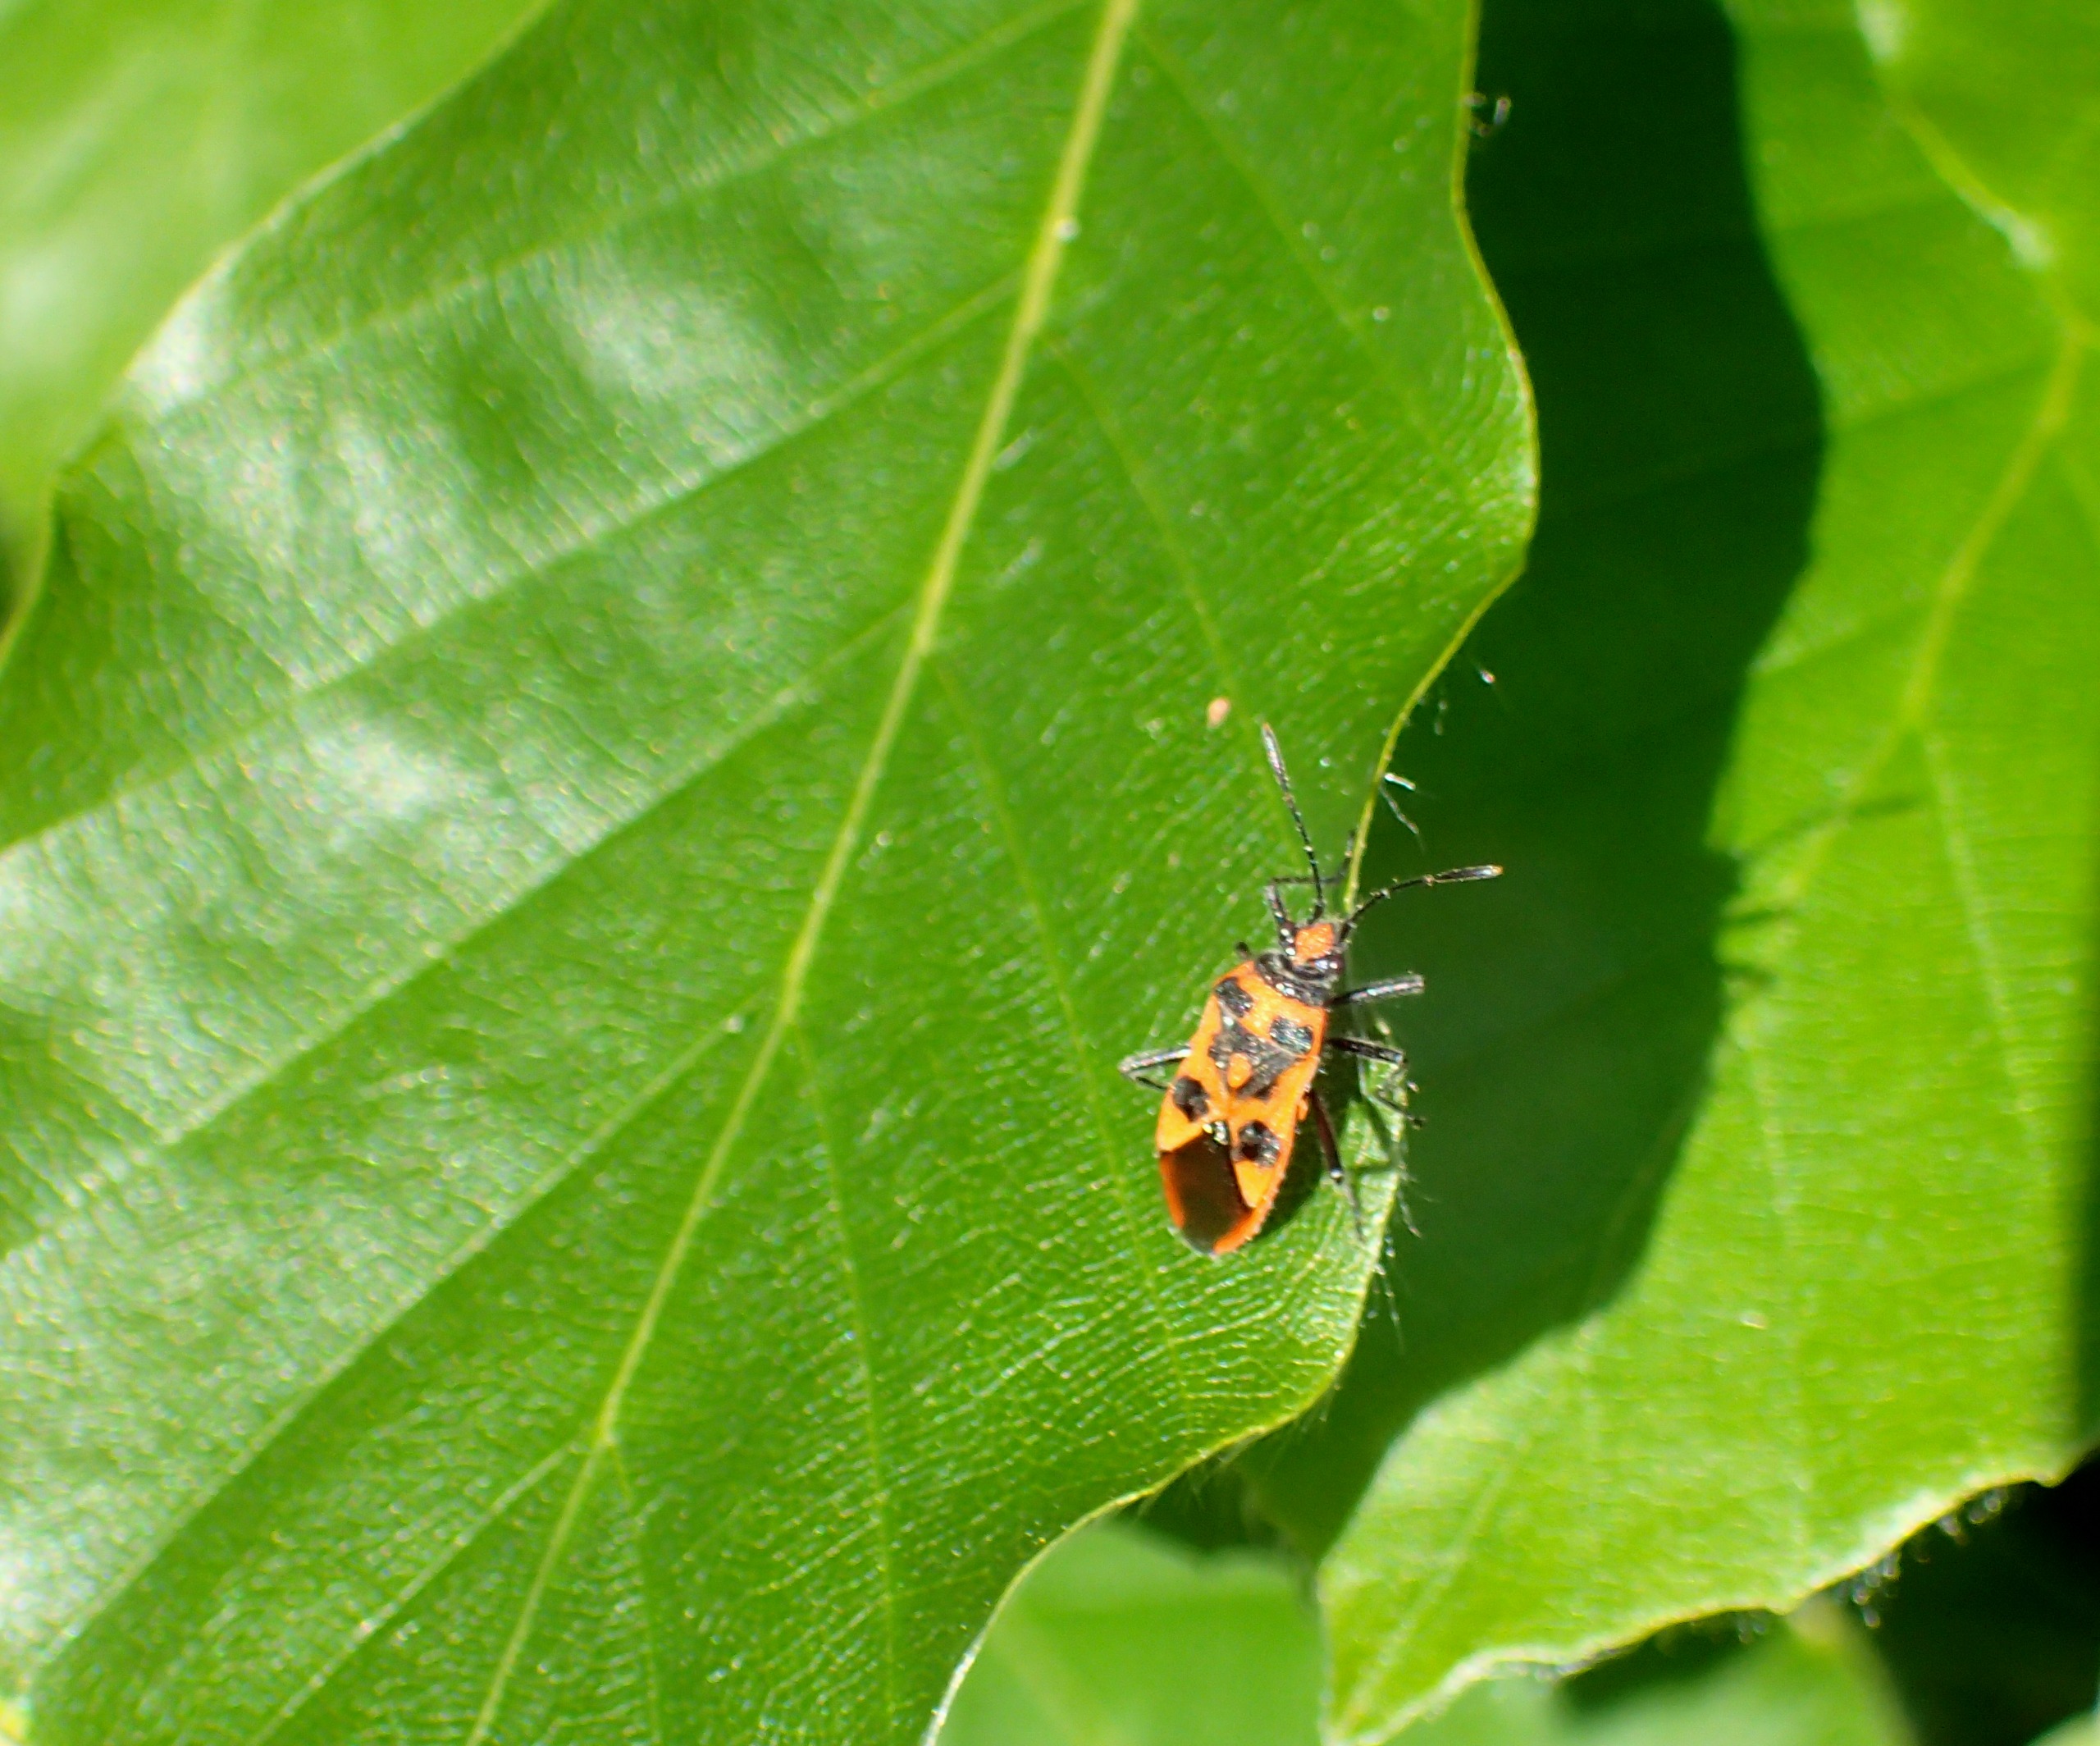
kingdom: Animalia
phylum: Arthropoda
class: Insecta
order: Hemiptera
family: Rhopalidae
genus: Corizus
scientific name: Corizus hyoscyami
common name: Rød kanttæge
